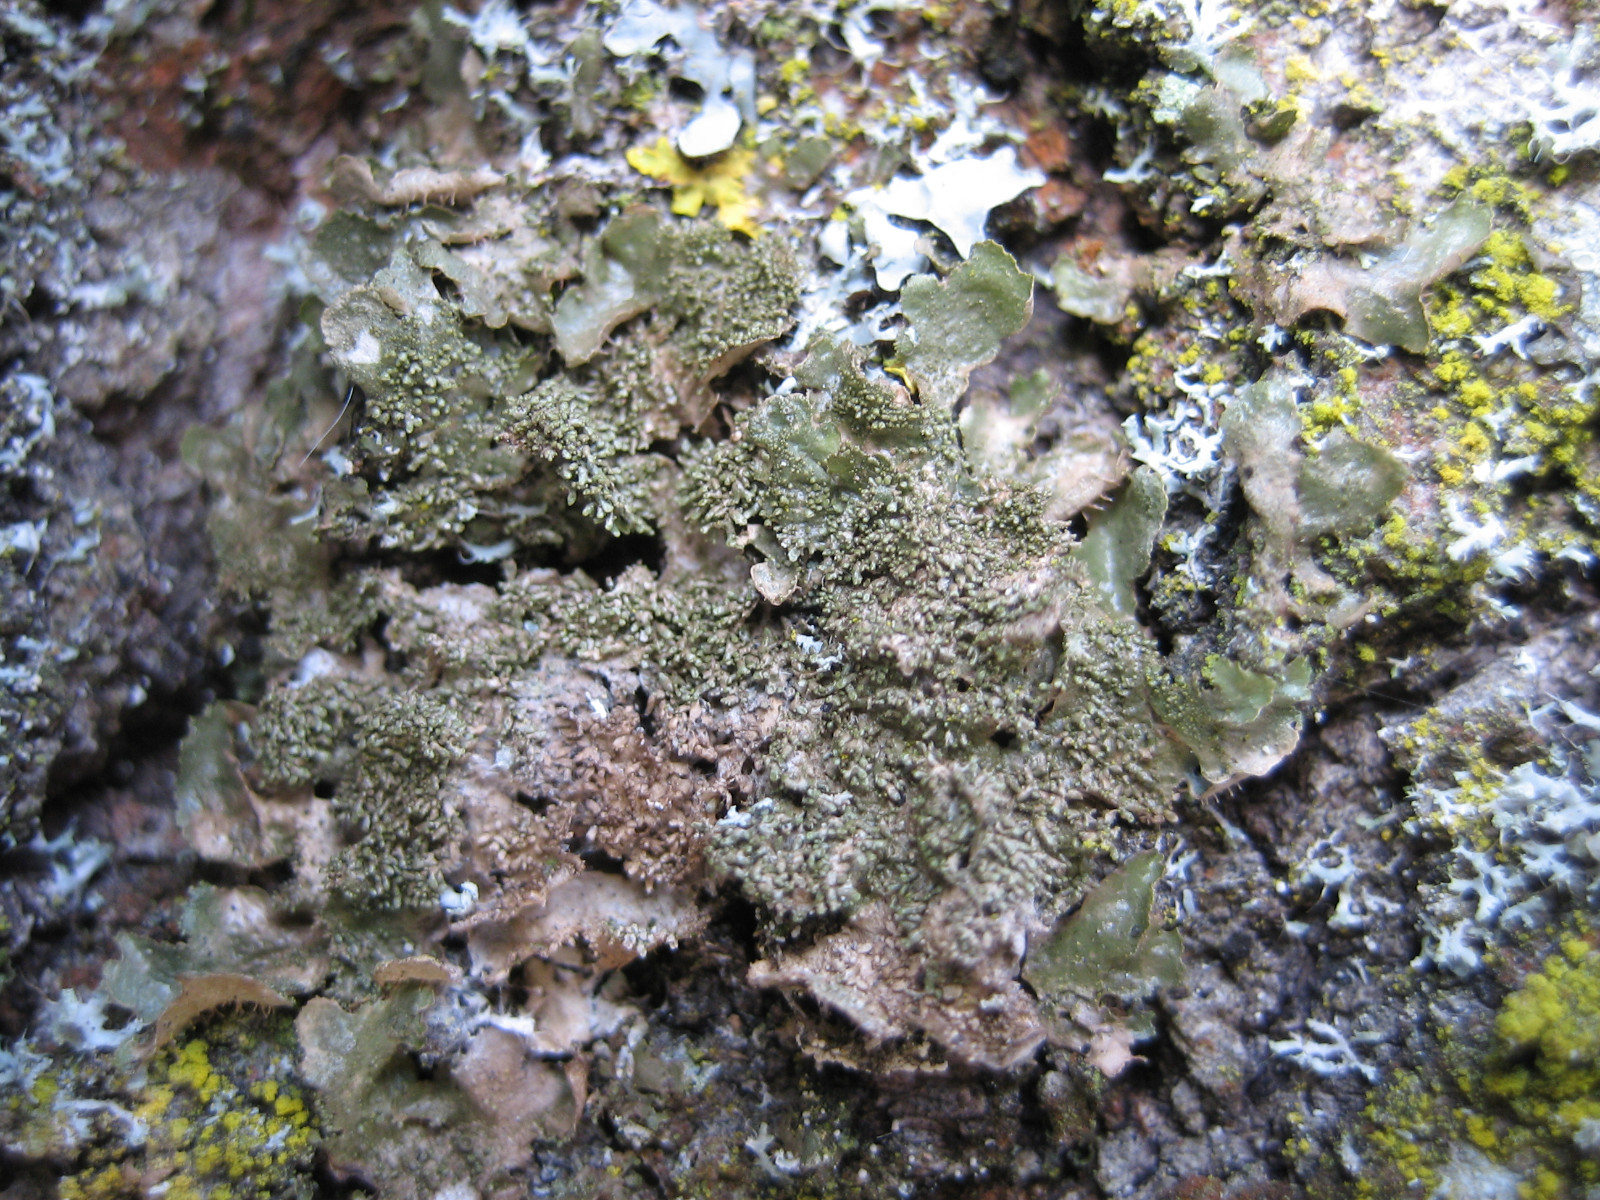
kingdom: Fungi
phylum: Ascomycota
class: Lecanoromycetes
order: Lecanorales
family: Parmeliaceae
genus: Melanohalea
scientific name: Melanohalea exasperatula
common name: kølle-skållav
